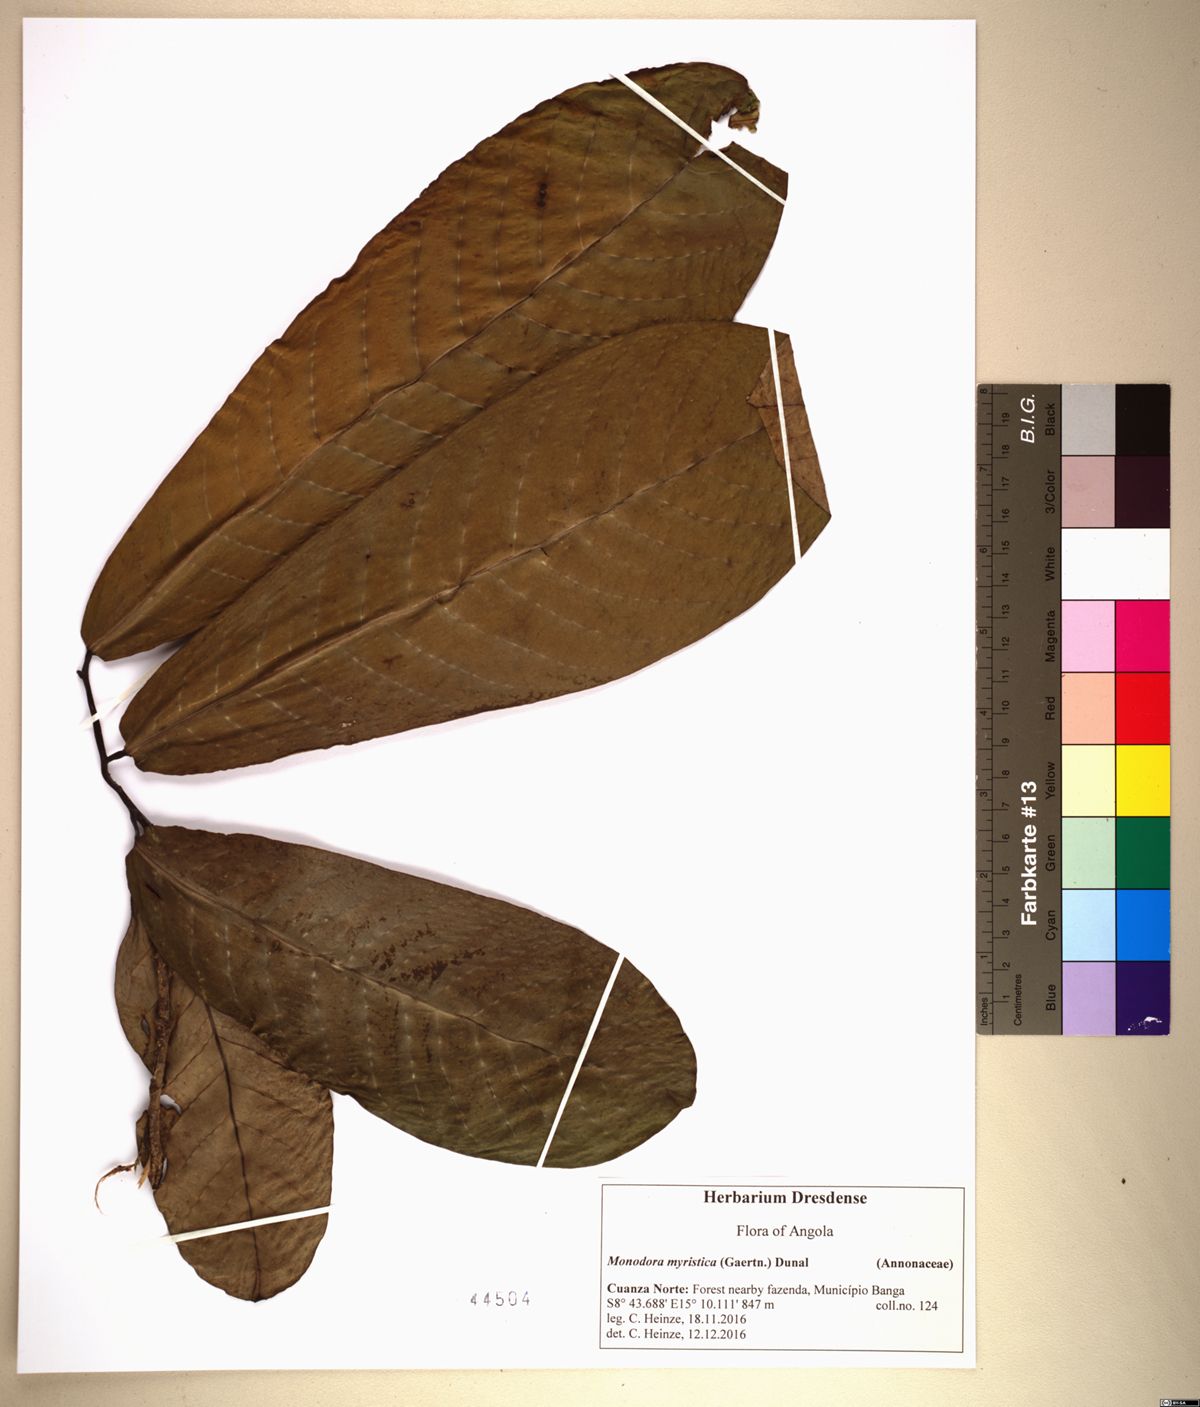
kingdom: Plantae
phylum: Tracheophyta
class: Magnoliopsida
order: Magnoliales
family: Annonaceae
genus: Monodora
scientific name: Monodora myristica
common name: African nutmeg
